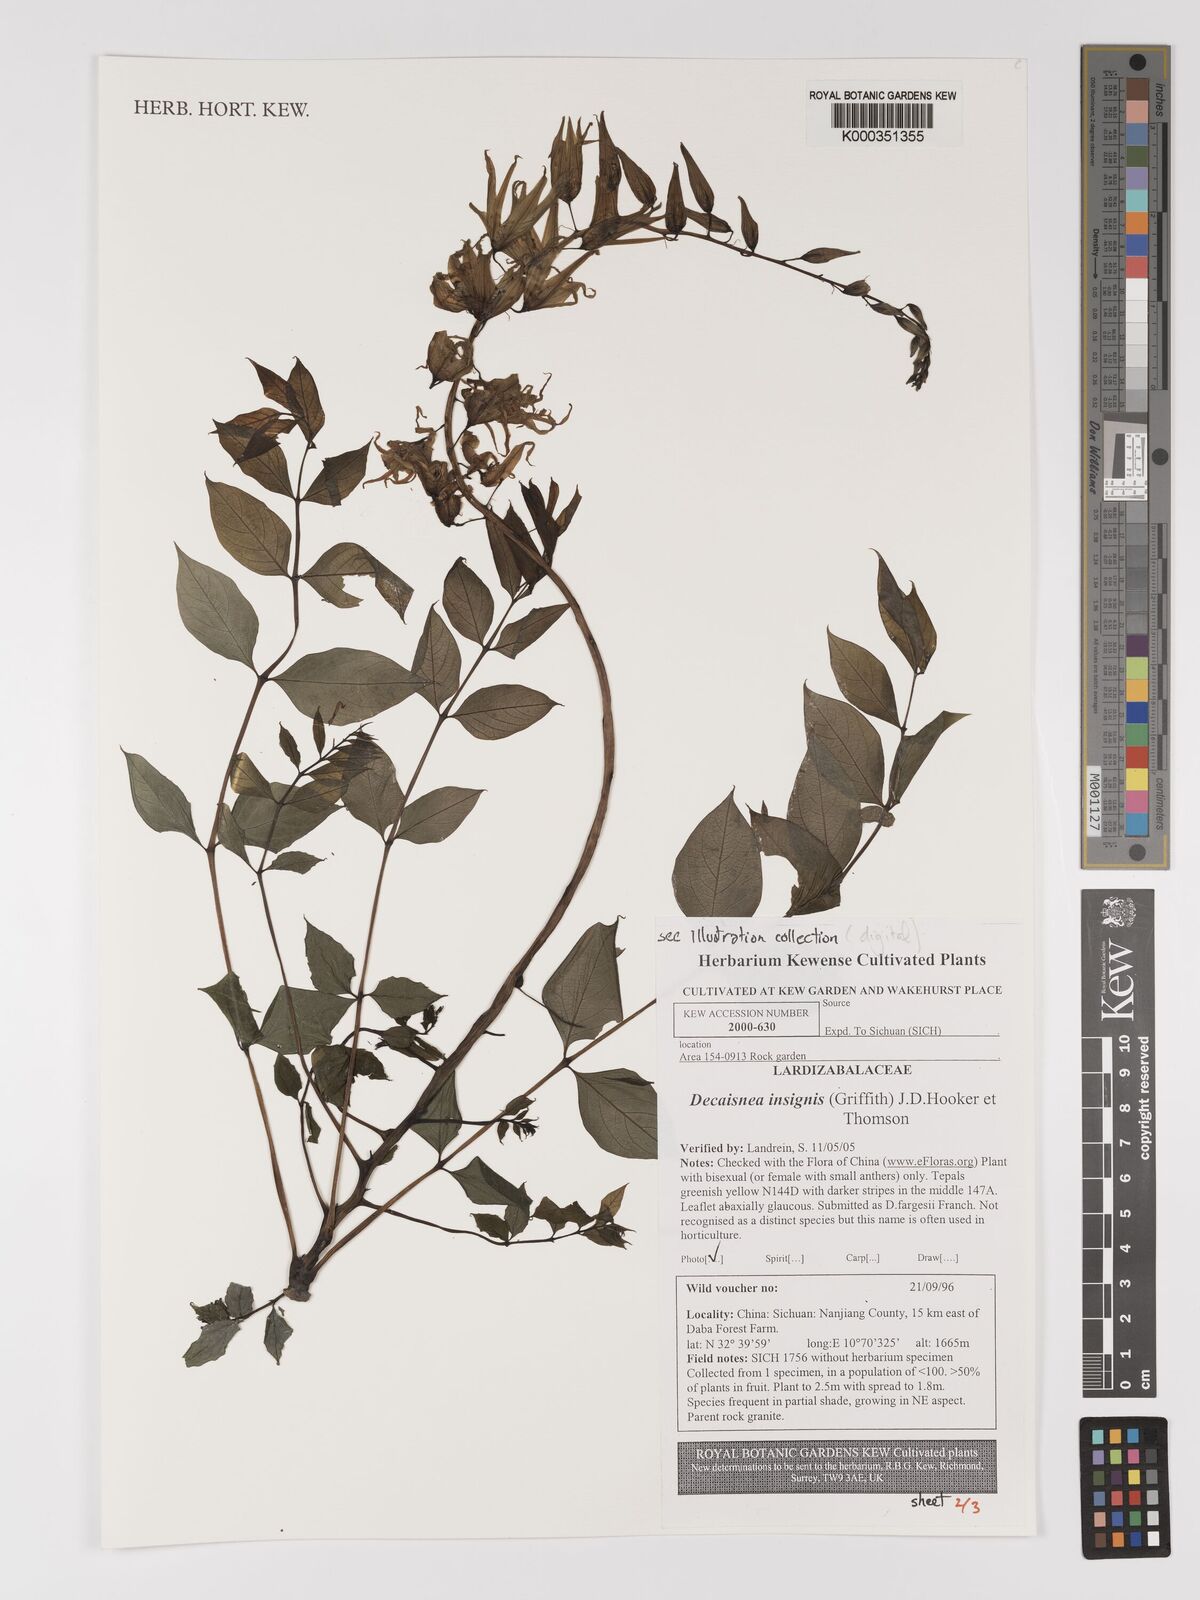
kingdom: Plantae
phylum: Tracheophyta
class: Magnoliopsida
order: Ranunculales
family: Lardizabalaceae
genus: Decaisnea
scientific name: Decaisnea insignis
